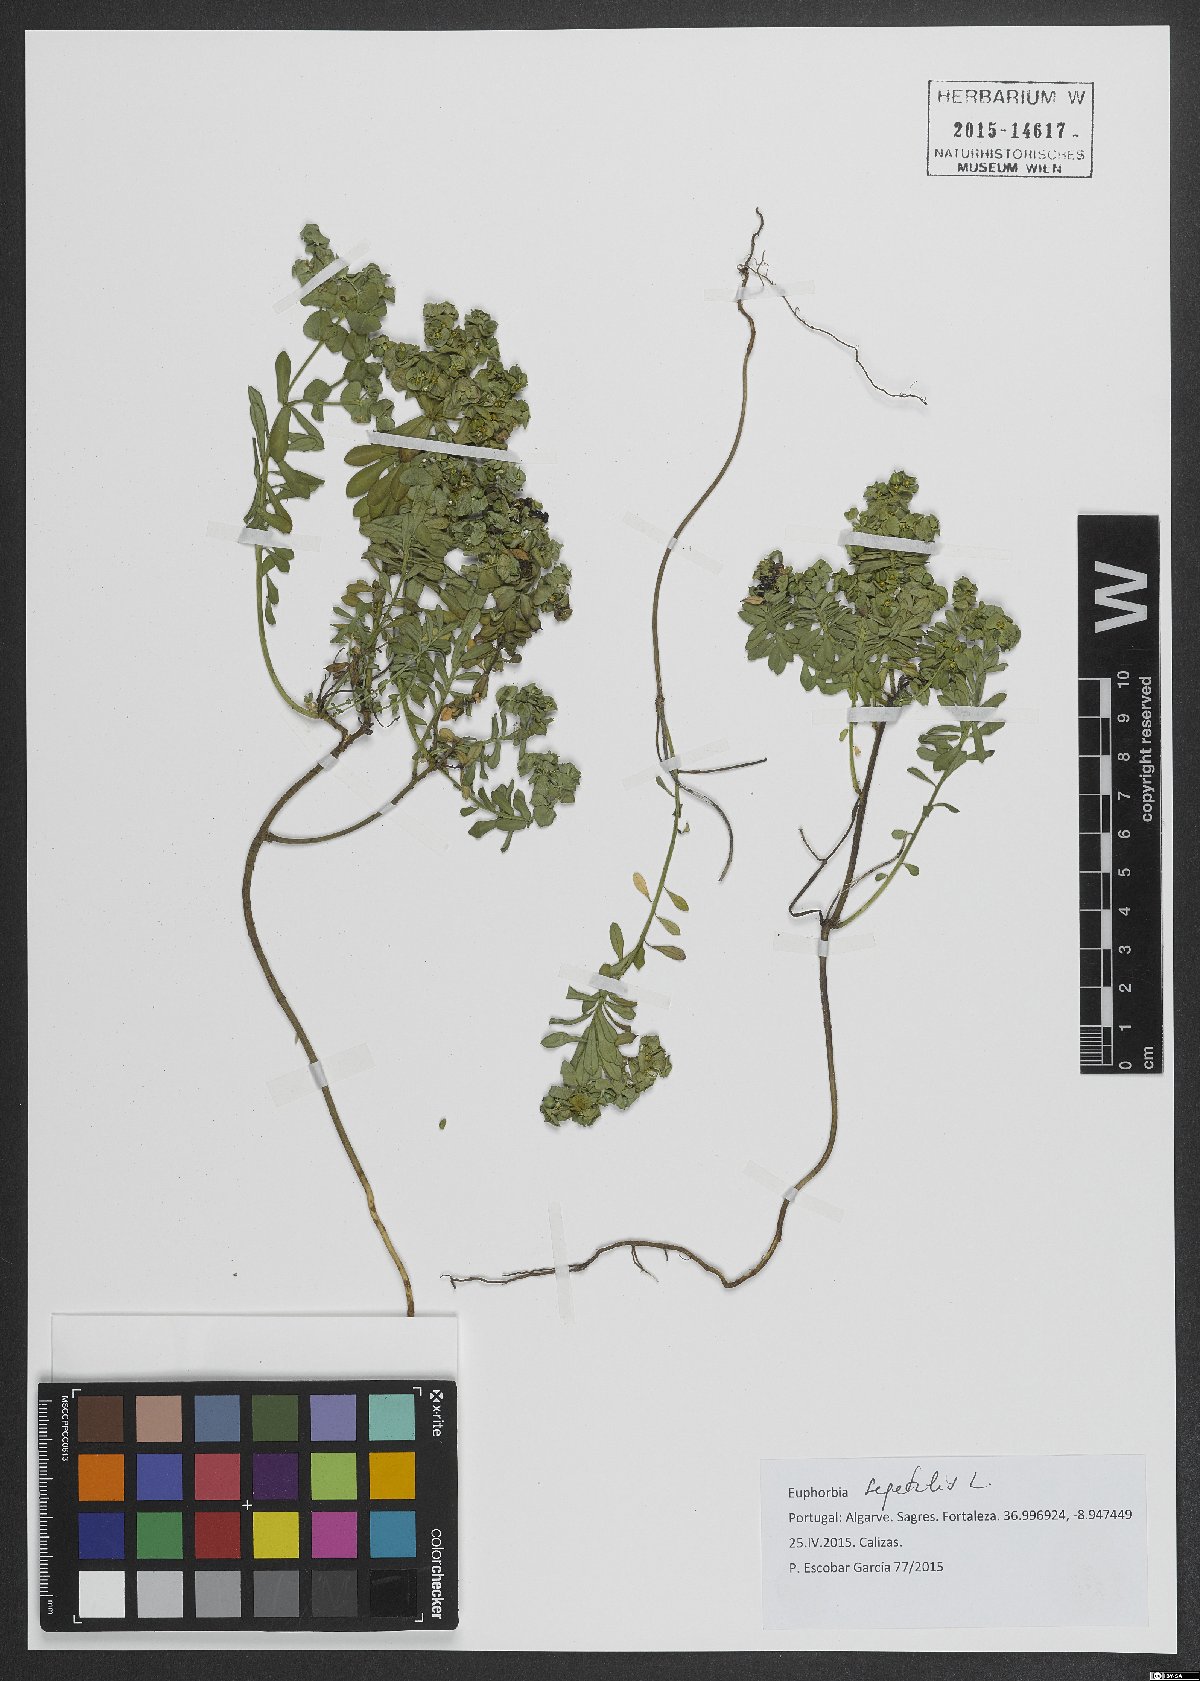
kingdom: Plantae
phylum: Tracheophyta
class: Magnoliopsida
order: Malpighiales
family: Euphorbiaceae
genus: Euphorbia
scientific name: Euphorbia segetalis
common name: Corn spurge
